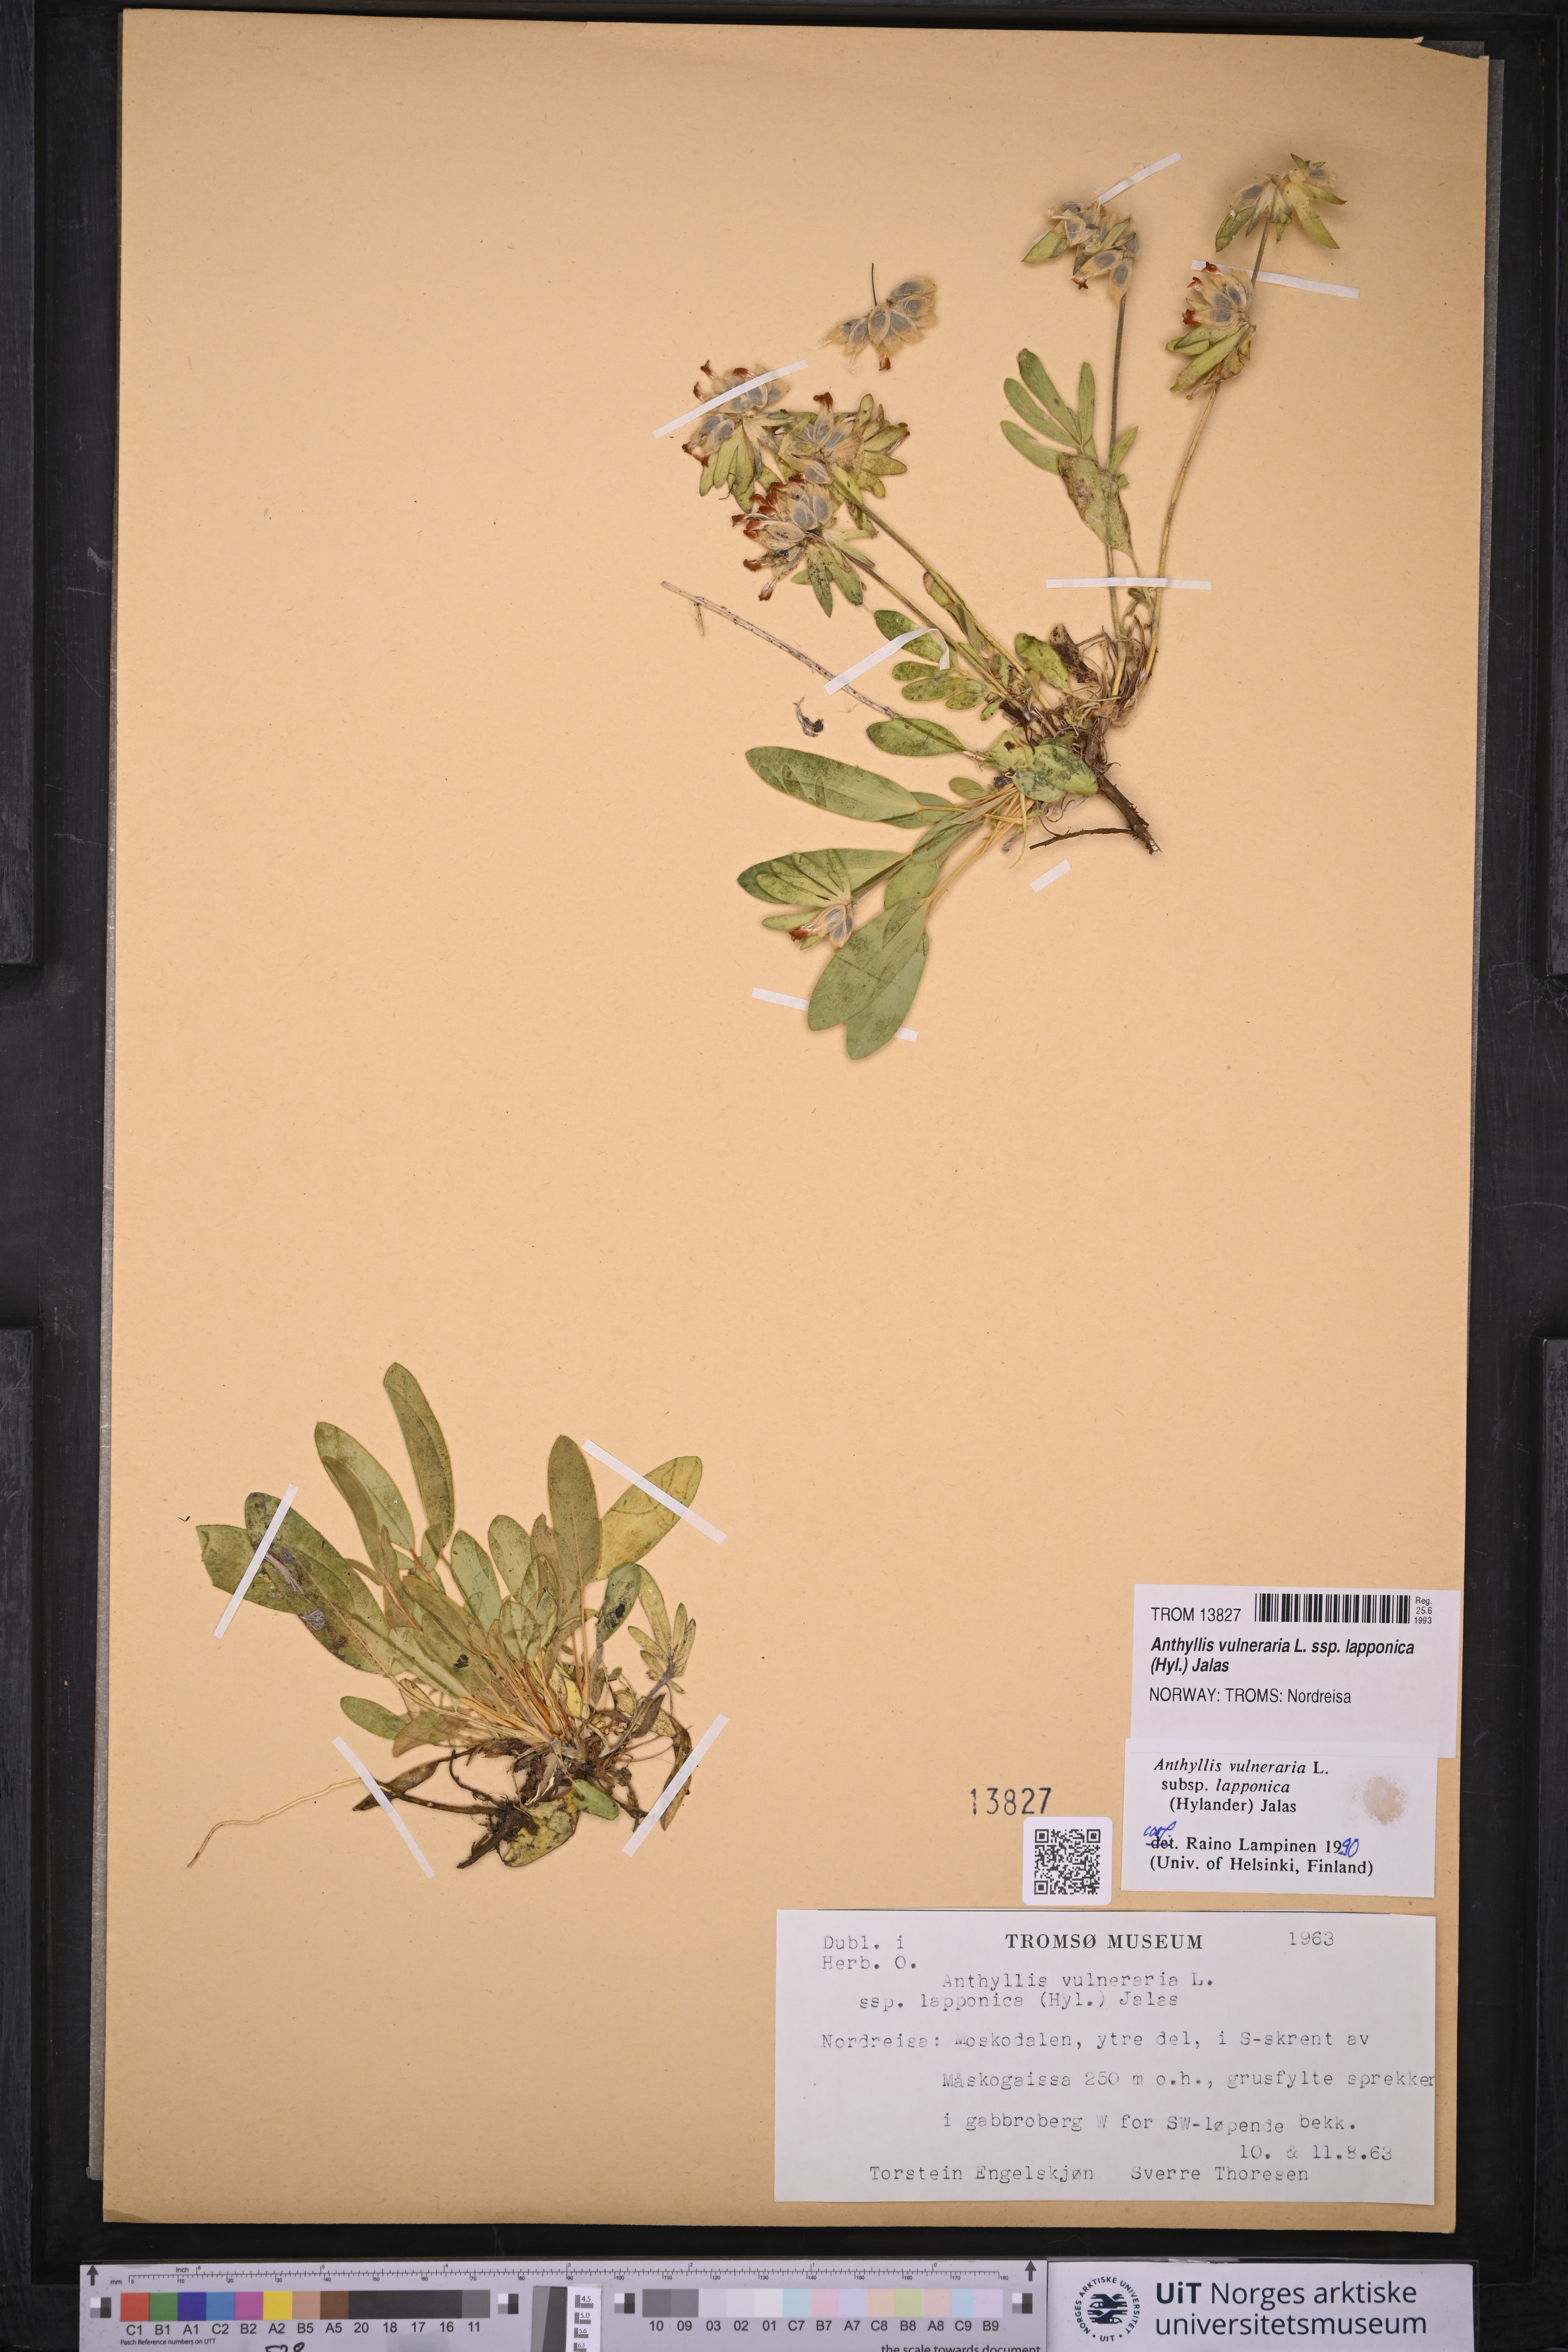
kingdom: Plantae
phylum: Tracheophyta
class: Magnoliopsida
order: Fabales
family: Fabaceae
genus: Anthyllis
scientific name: Anthyllis vulneraria
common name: Kidney vetch
